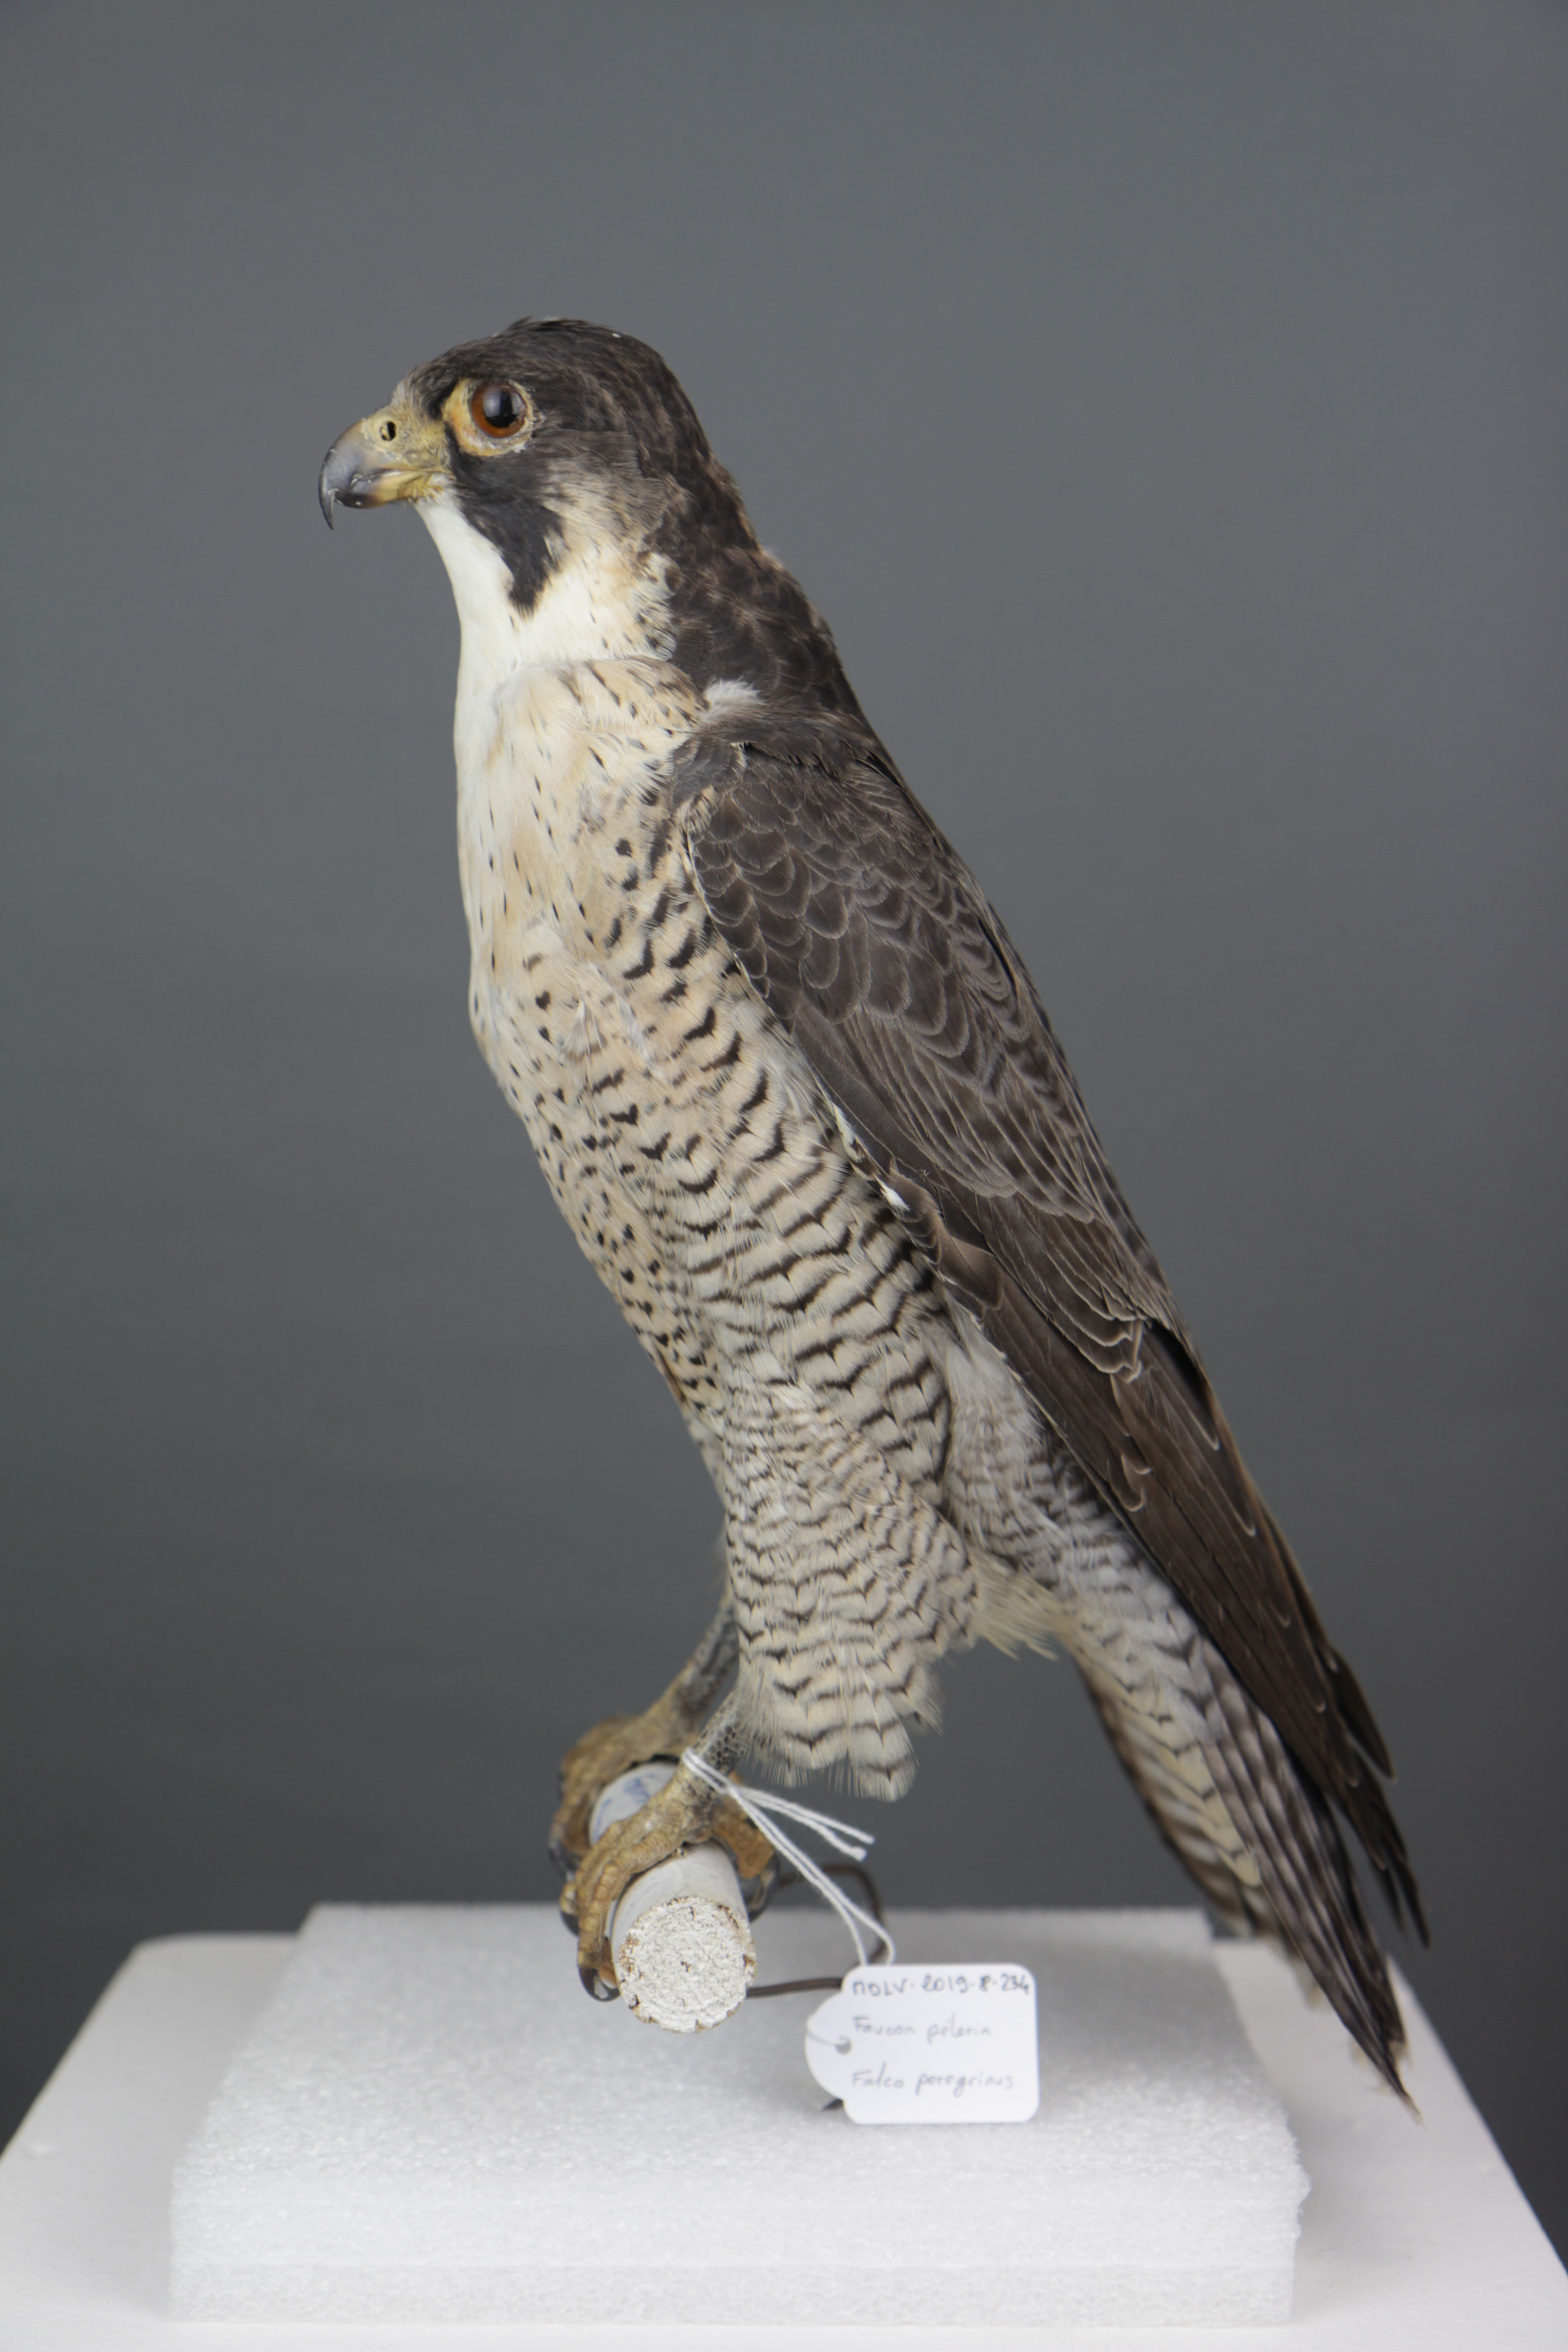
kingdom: Animalia
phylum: Chordata
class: Aves
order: Falconiformes
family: Falconidae
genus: Falco
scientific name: Falco peregrinus
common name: Peregrine falcon
